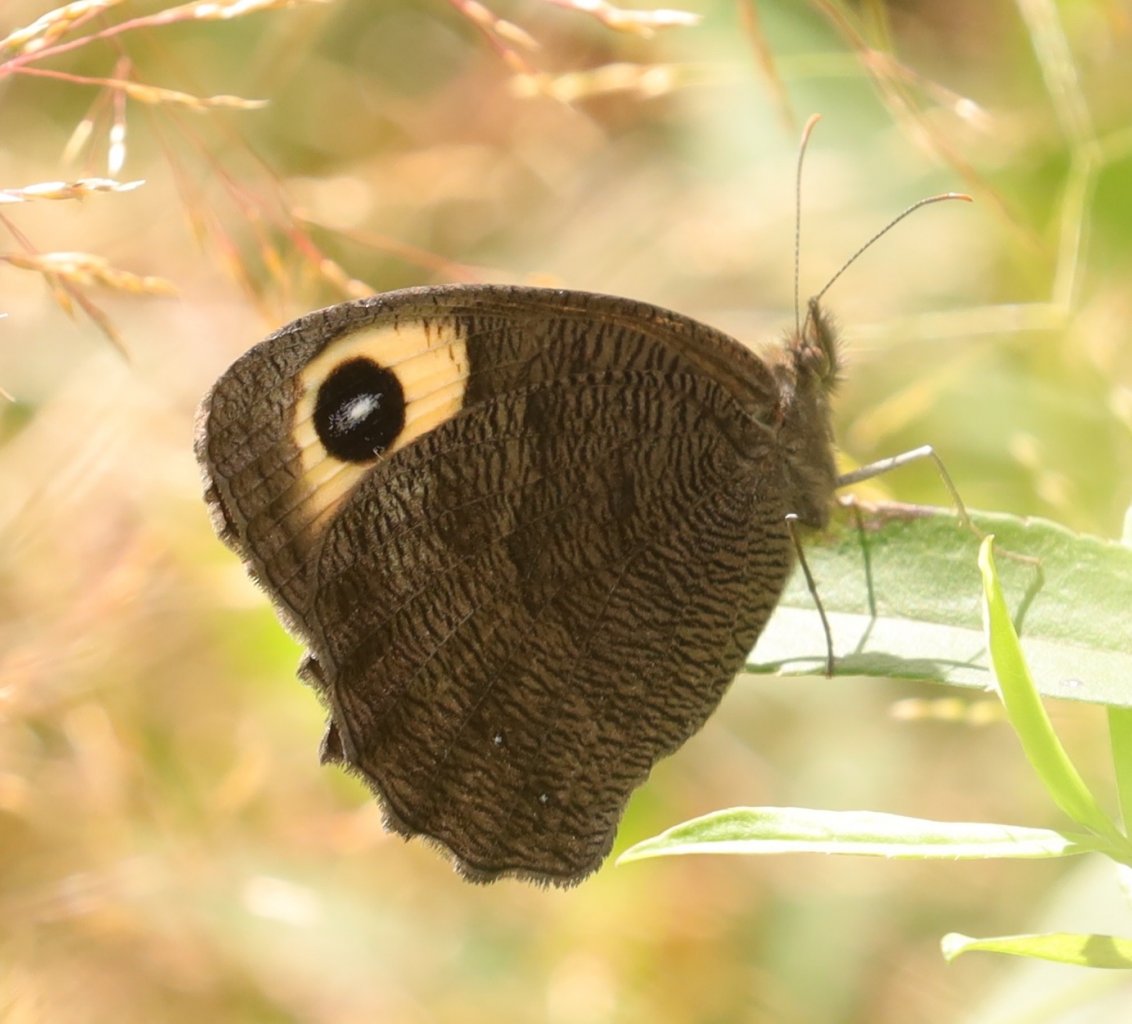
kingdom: Animalia
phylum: Arthropoda
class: Insecta
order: Lepidoptera
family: Nymphalidae
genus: Cercyonis
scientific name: Cercyonis pegala
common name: Common Wood-Nymph
